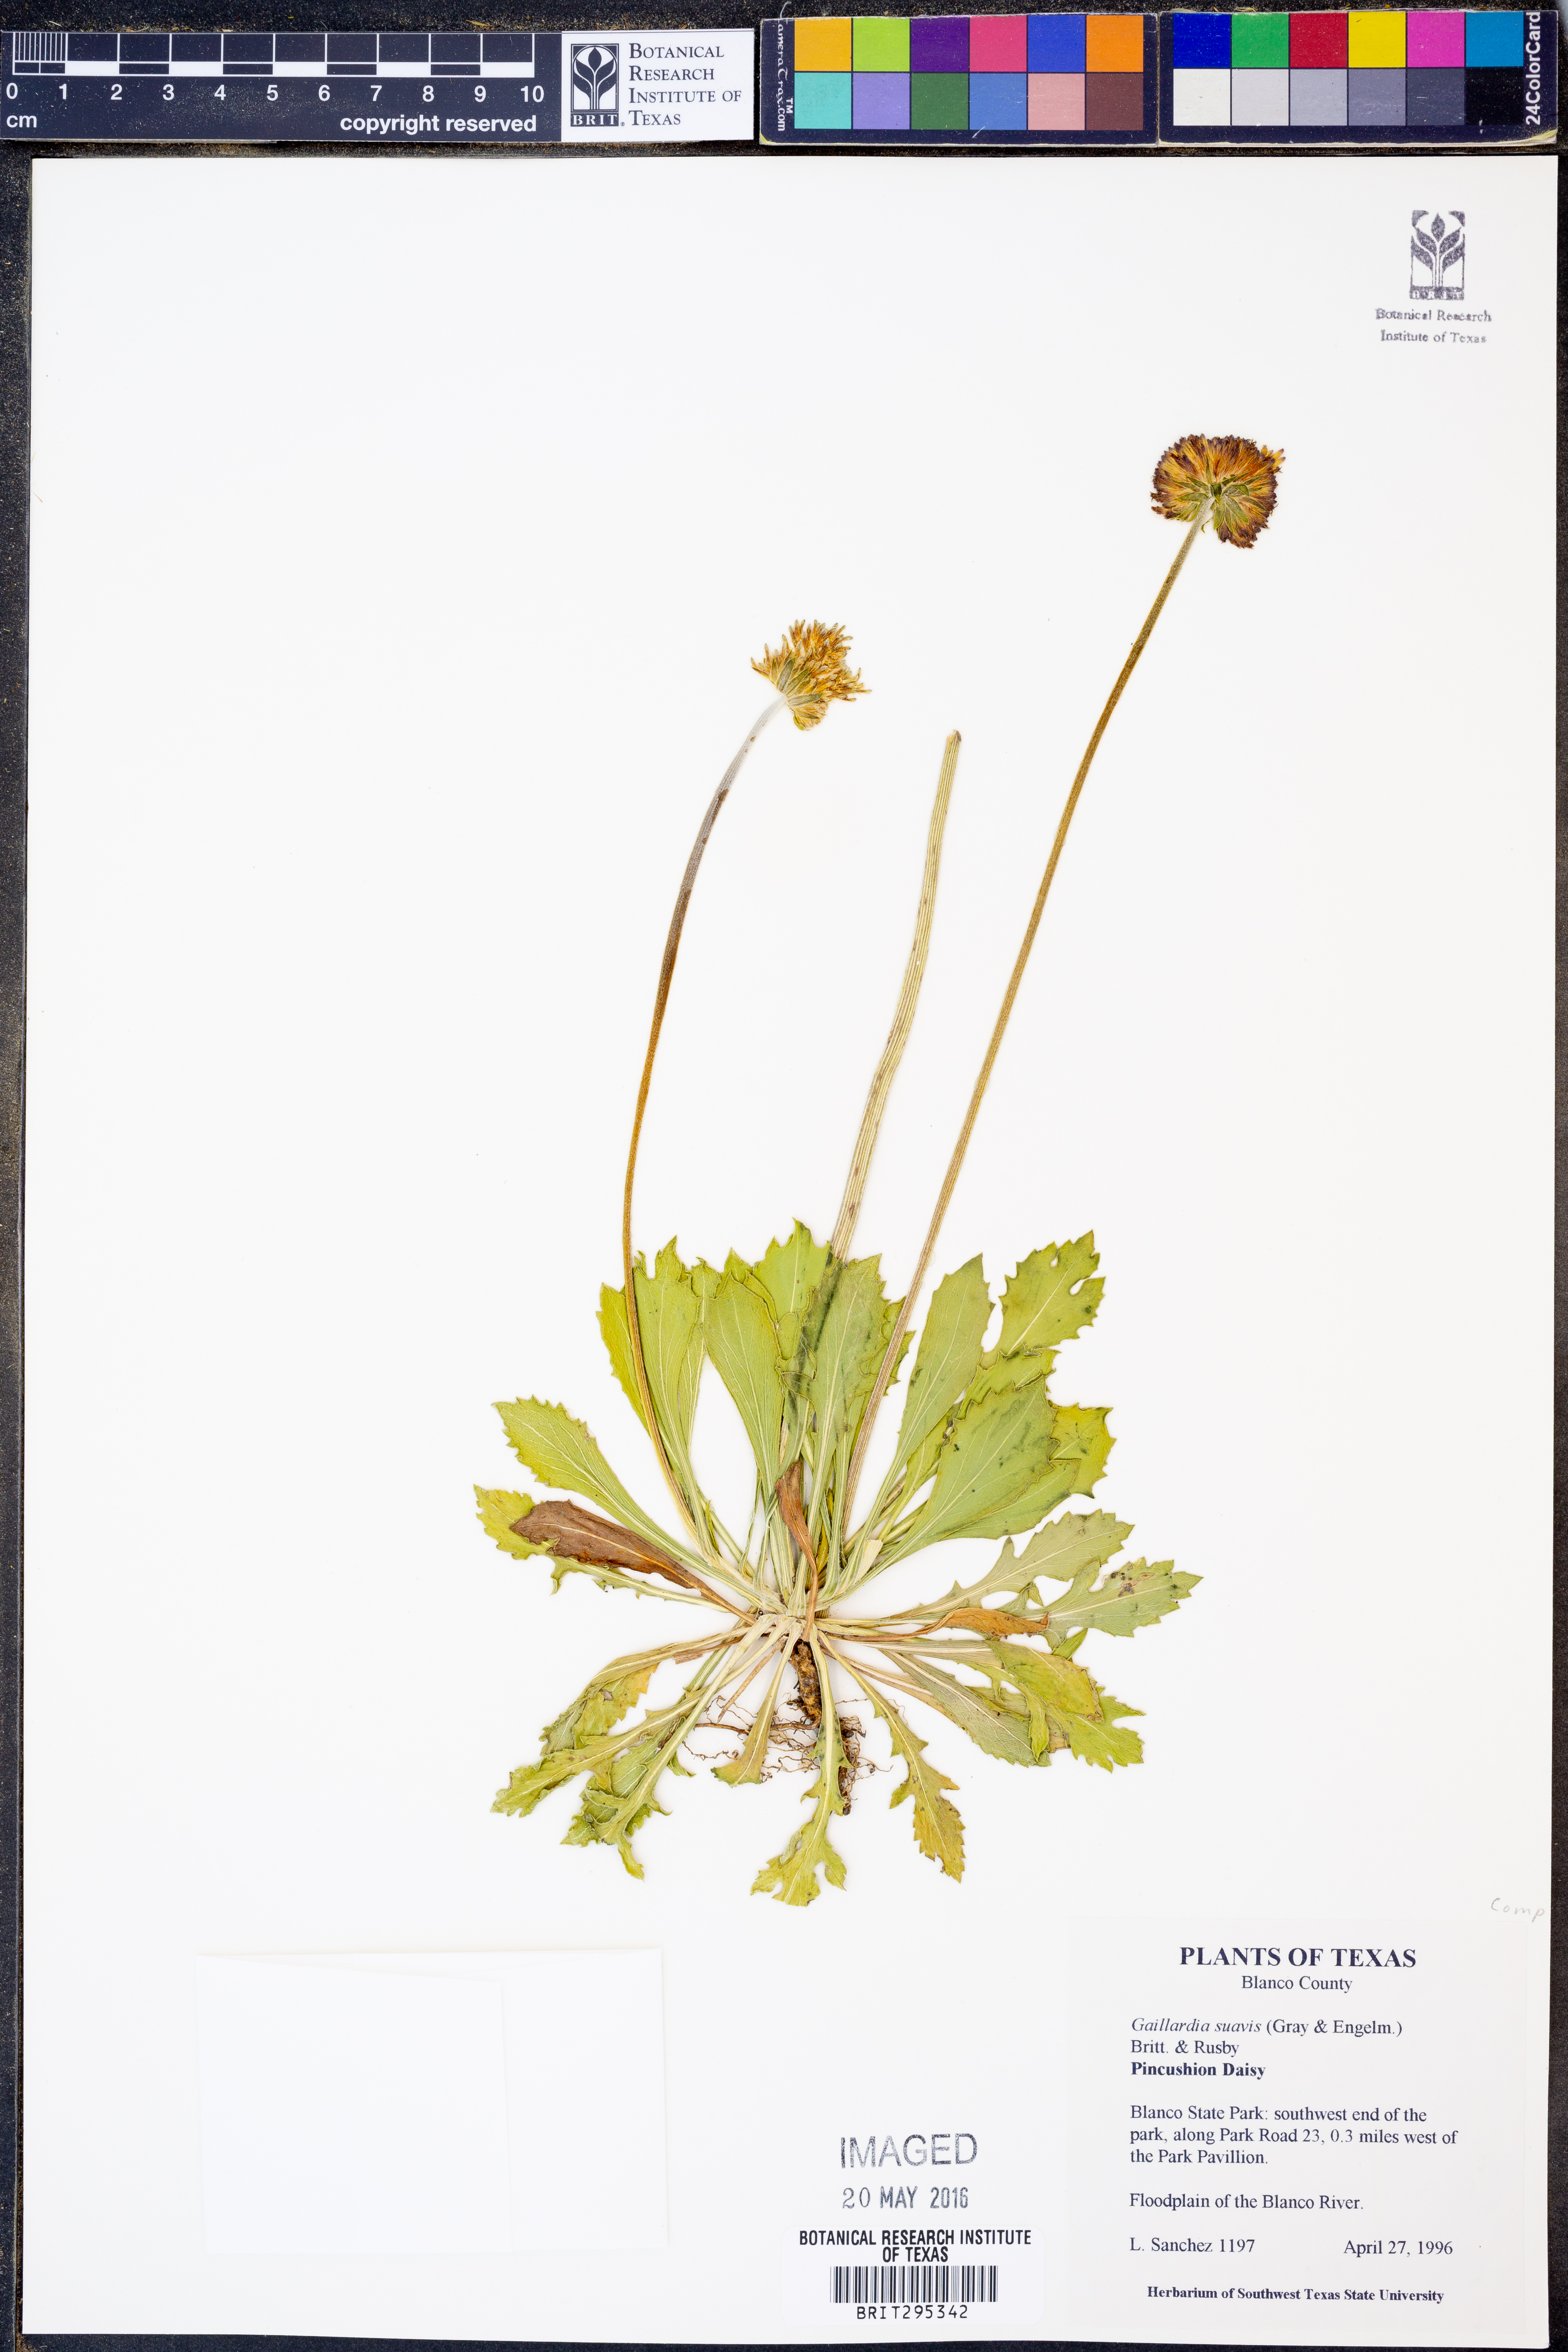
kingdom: Plantae
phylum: Tracheophyta
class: Magnoliopsida
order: Asterales
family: Asteraceae
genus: Gaillardia
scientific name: Gaillardia suavis
